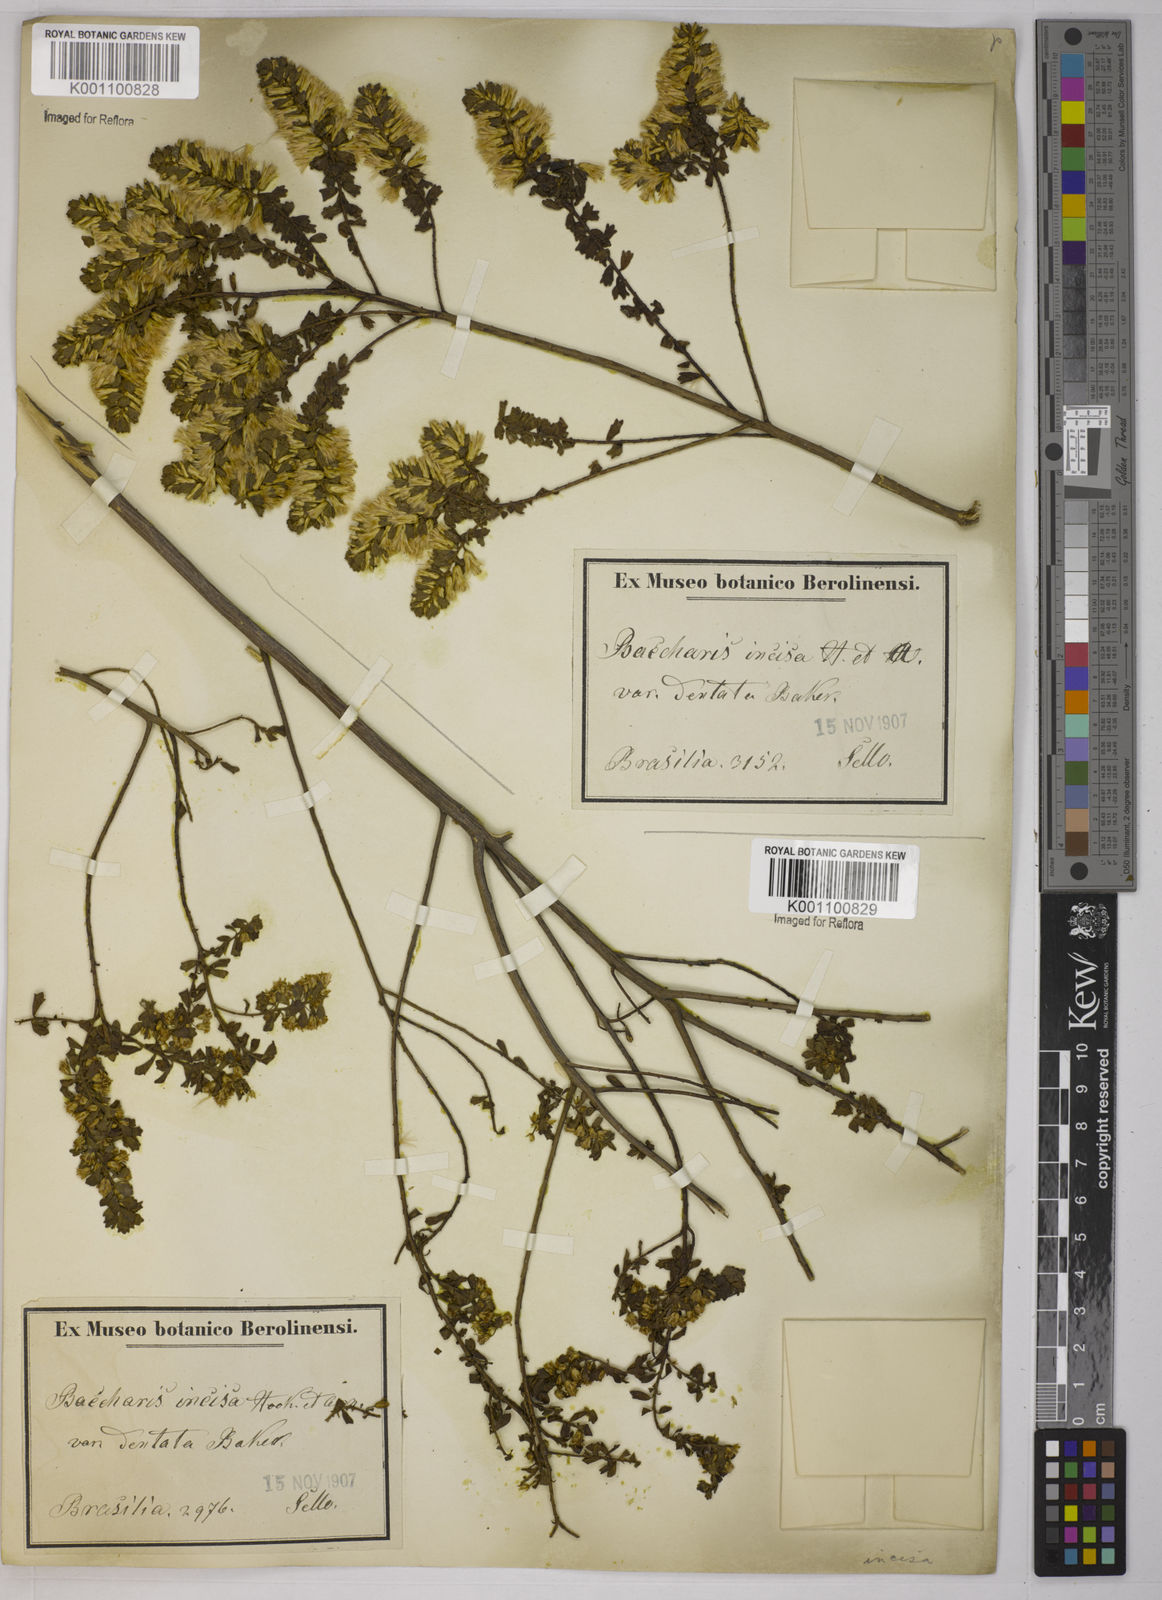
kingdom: Plantae
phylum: Tracheophyta
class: Magnoliopsida
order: Asterales
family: Asteraceae
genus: Baccharis
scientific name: Baccharis gaucha
